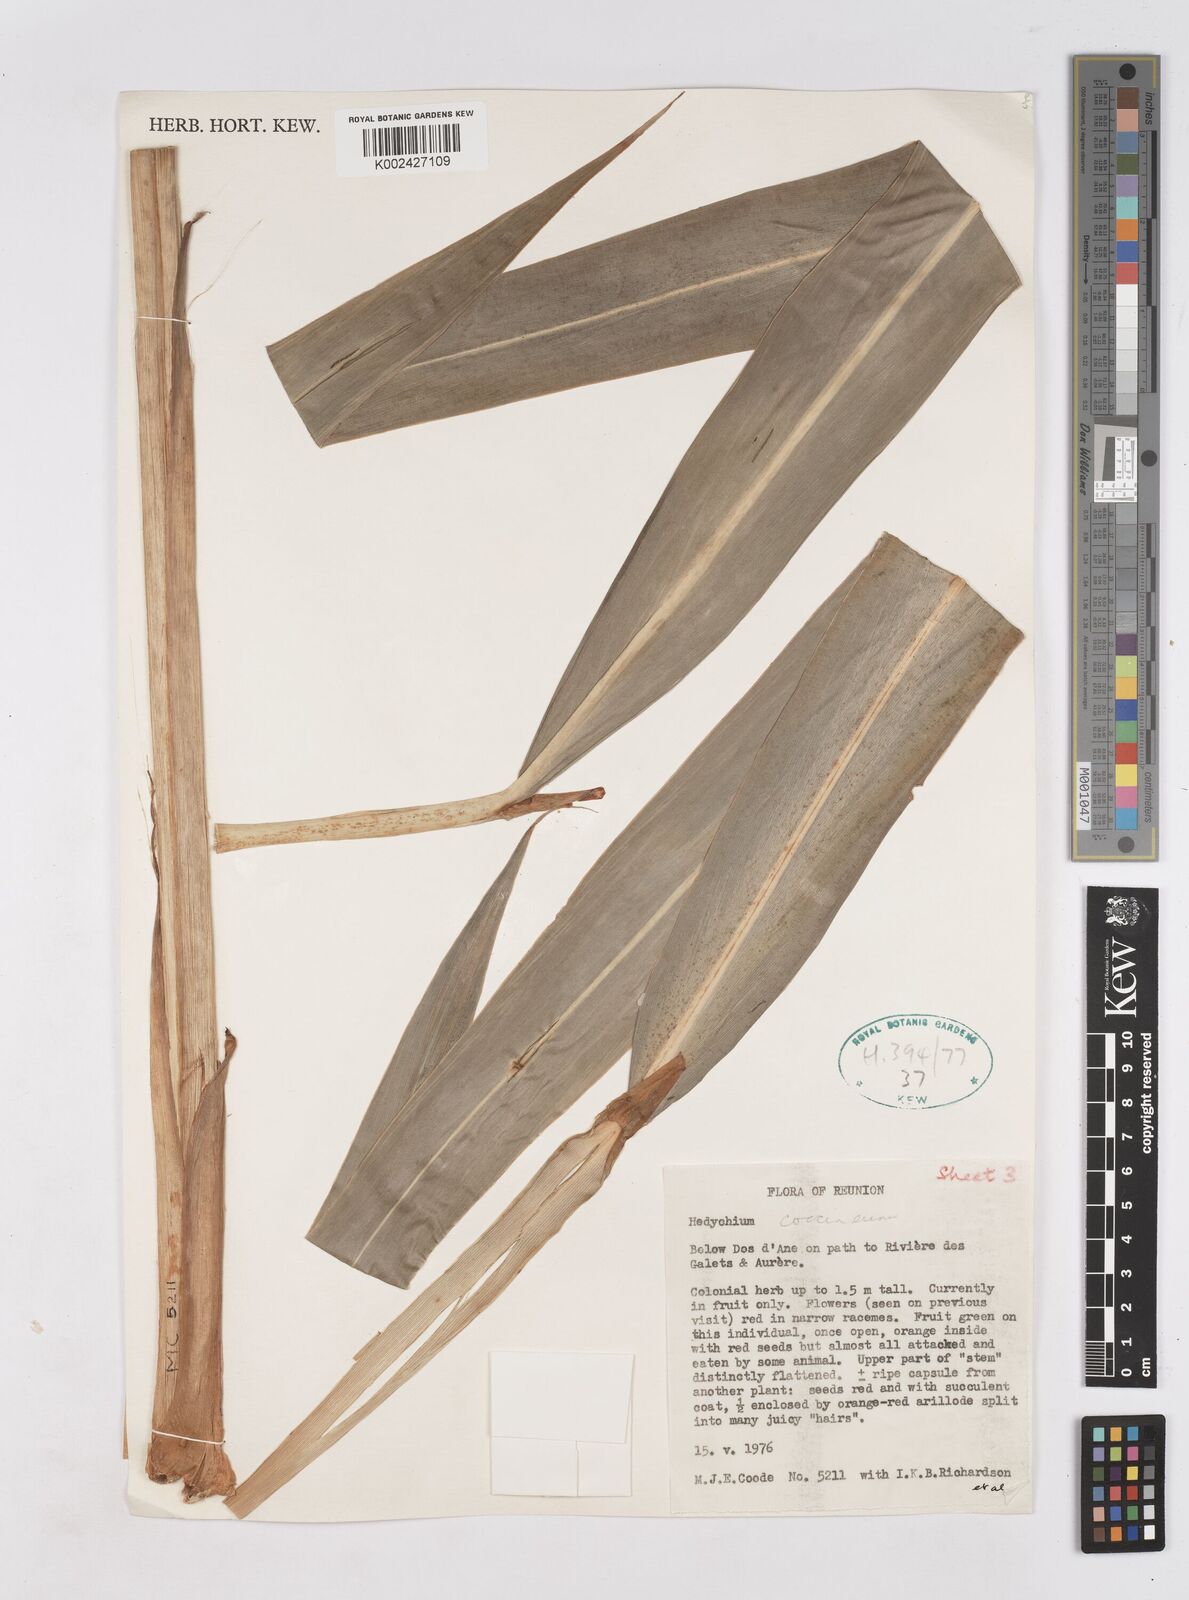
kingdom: Plantae
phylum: Tracheophyta
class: Liliopsida
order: Zingiberales
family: Zingiberaceae
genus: Hedychium
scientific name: Hedychium coccineum
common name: Red ginger-lily
